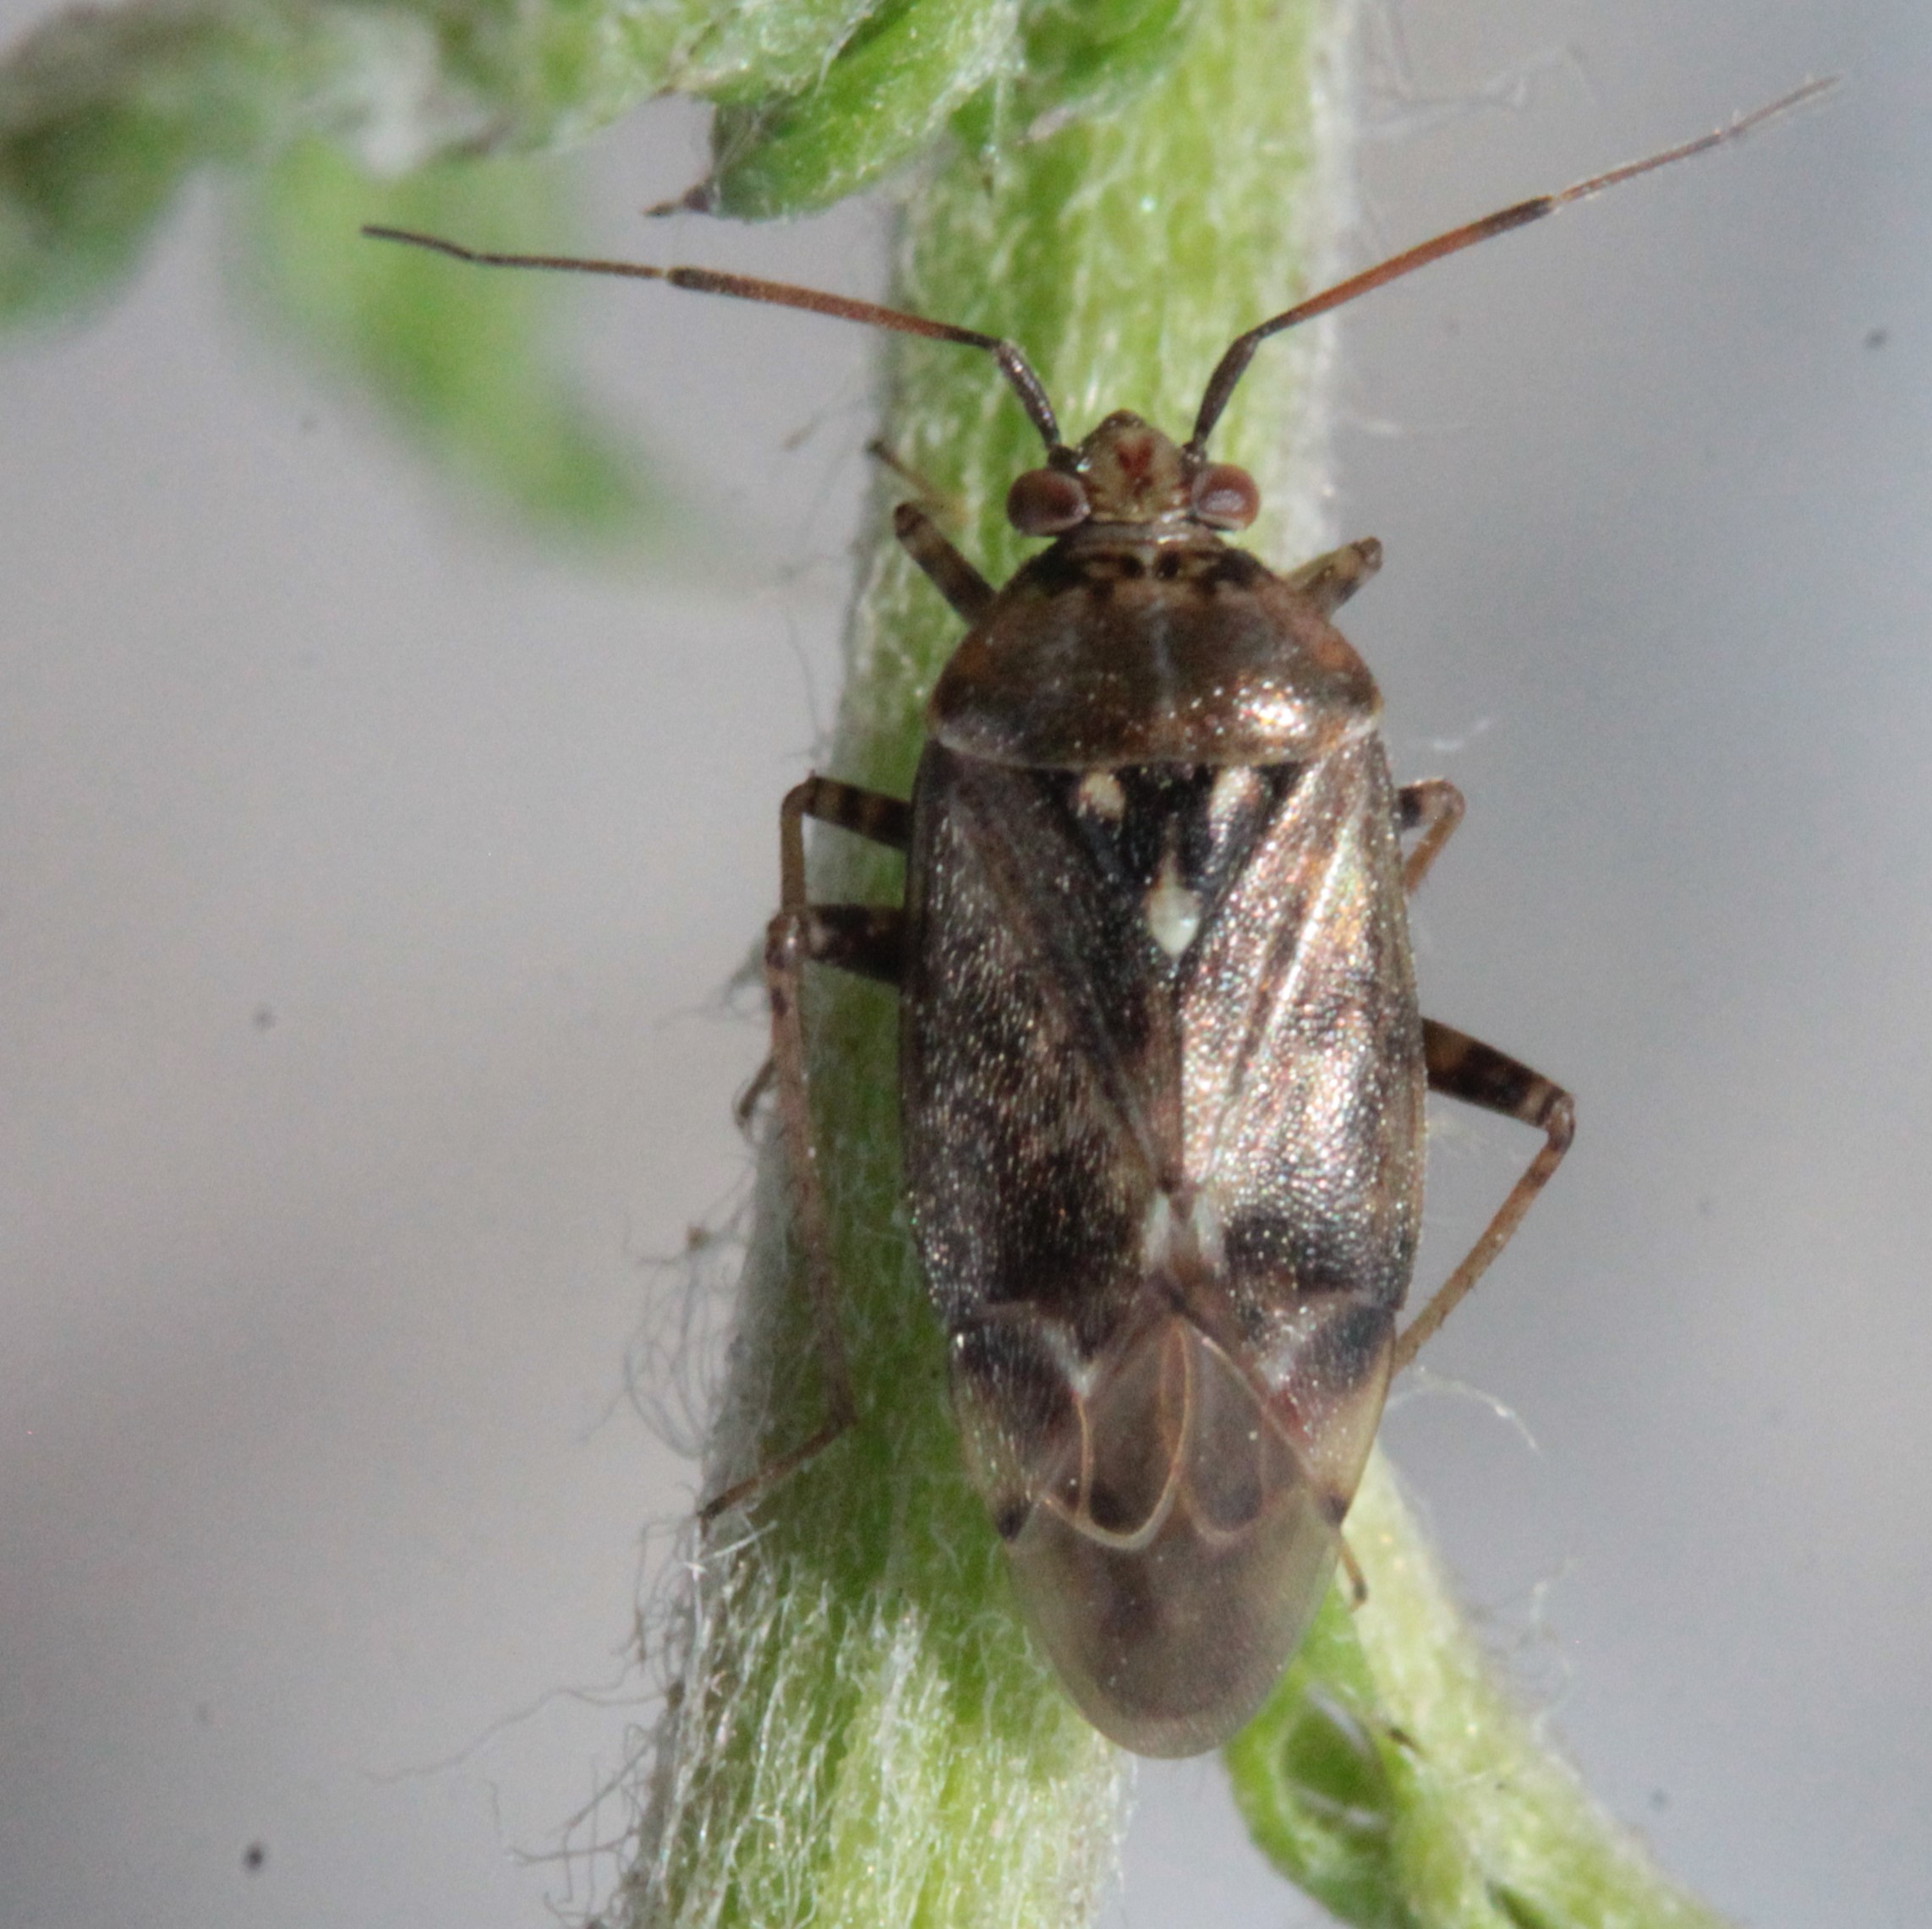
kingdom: Animalia
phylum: Arthropoda
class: Insecta
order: Hemiptera
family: Miridae
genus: Lygus
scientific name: Lygus rugulipennis
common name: European tarnished plant bug
